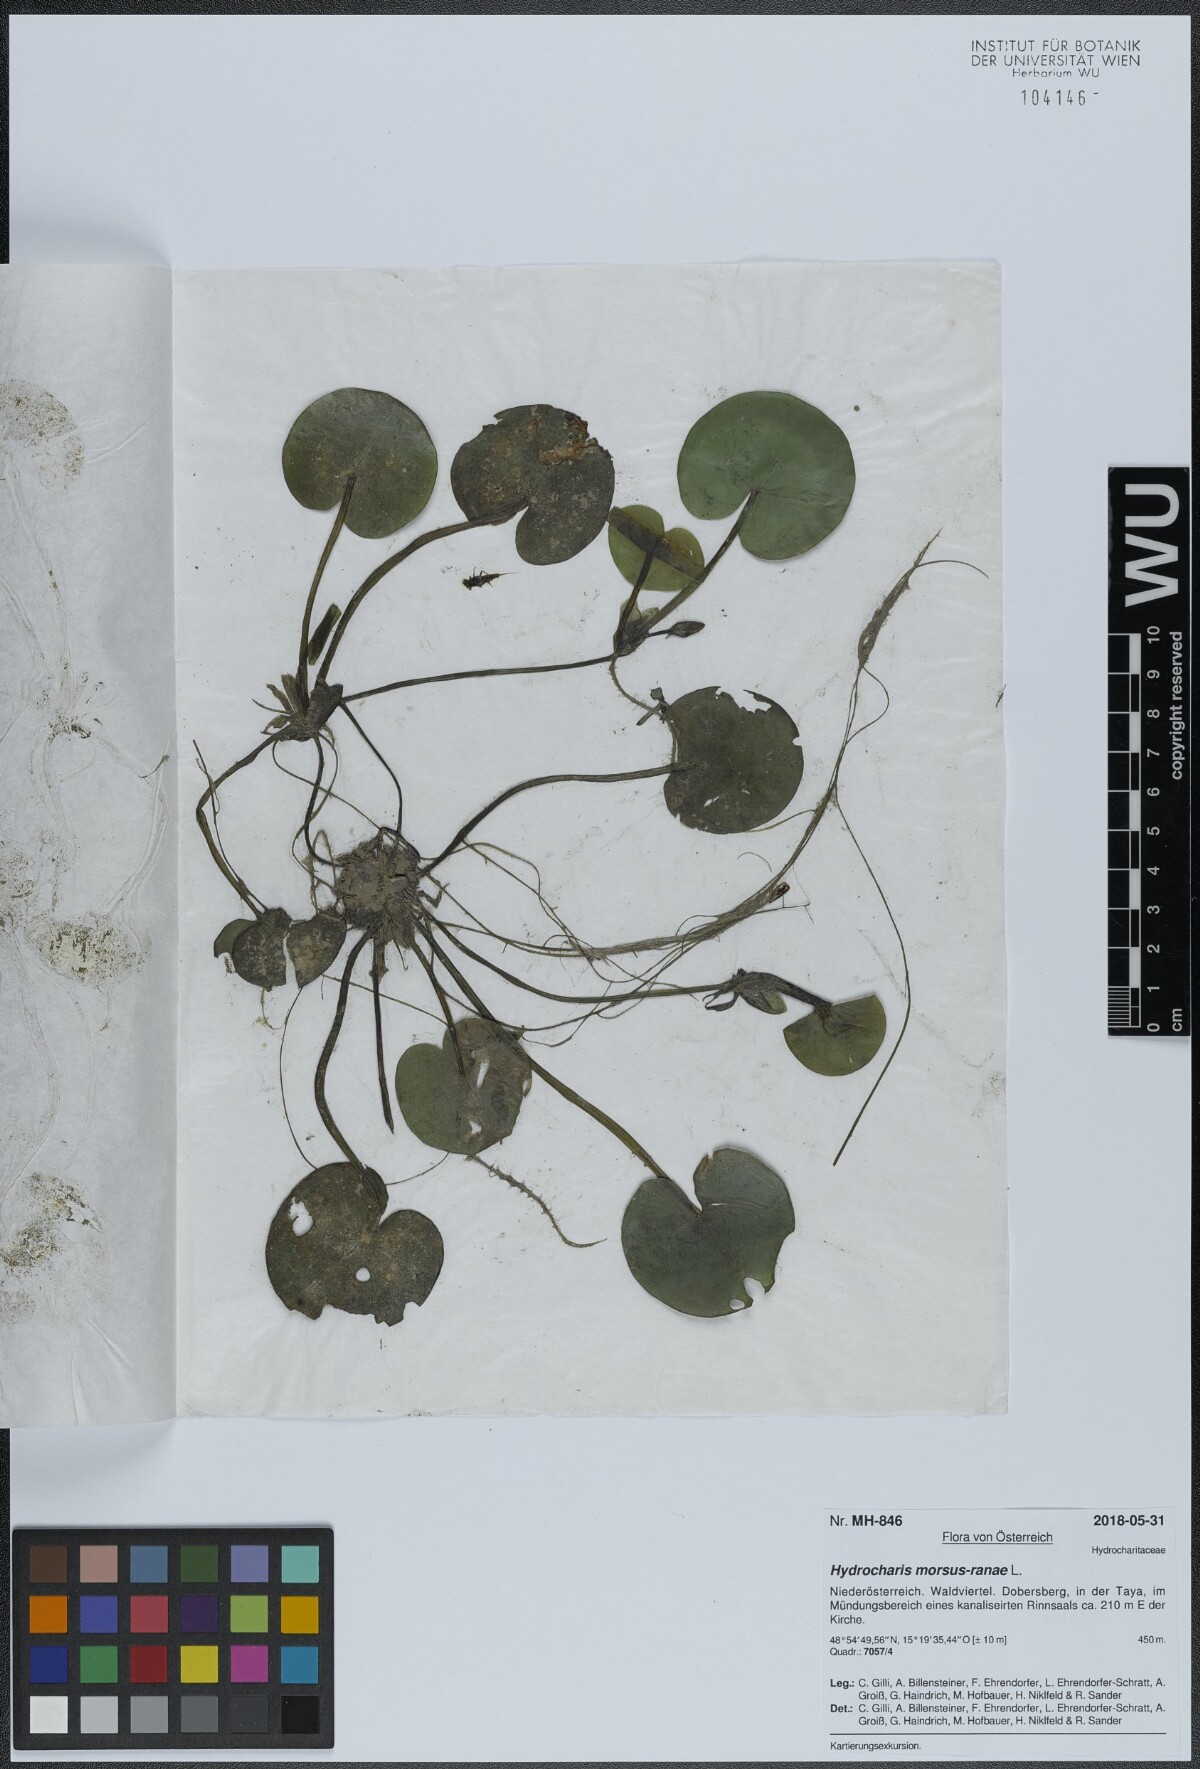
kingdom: Plantae
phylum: Tracheophyta
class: Liliopsida
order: Alismatales
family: Hydrocharitaceae
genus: Hydrocharis
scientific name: Hydrocharis morsus-ranae
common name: Frogbit
